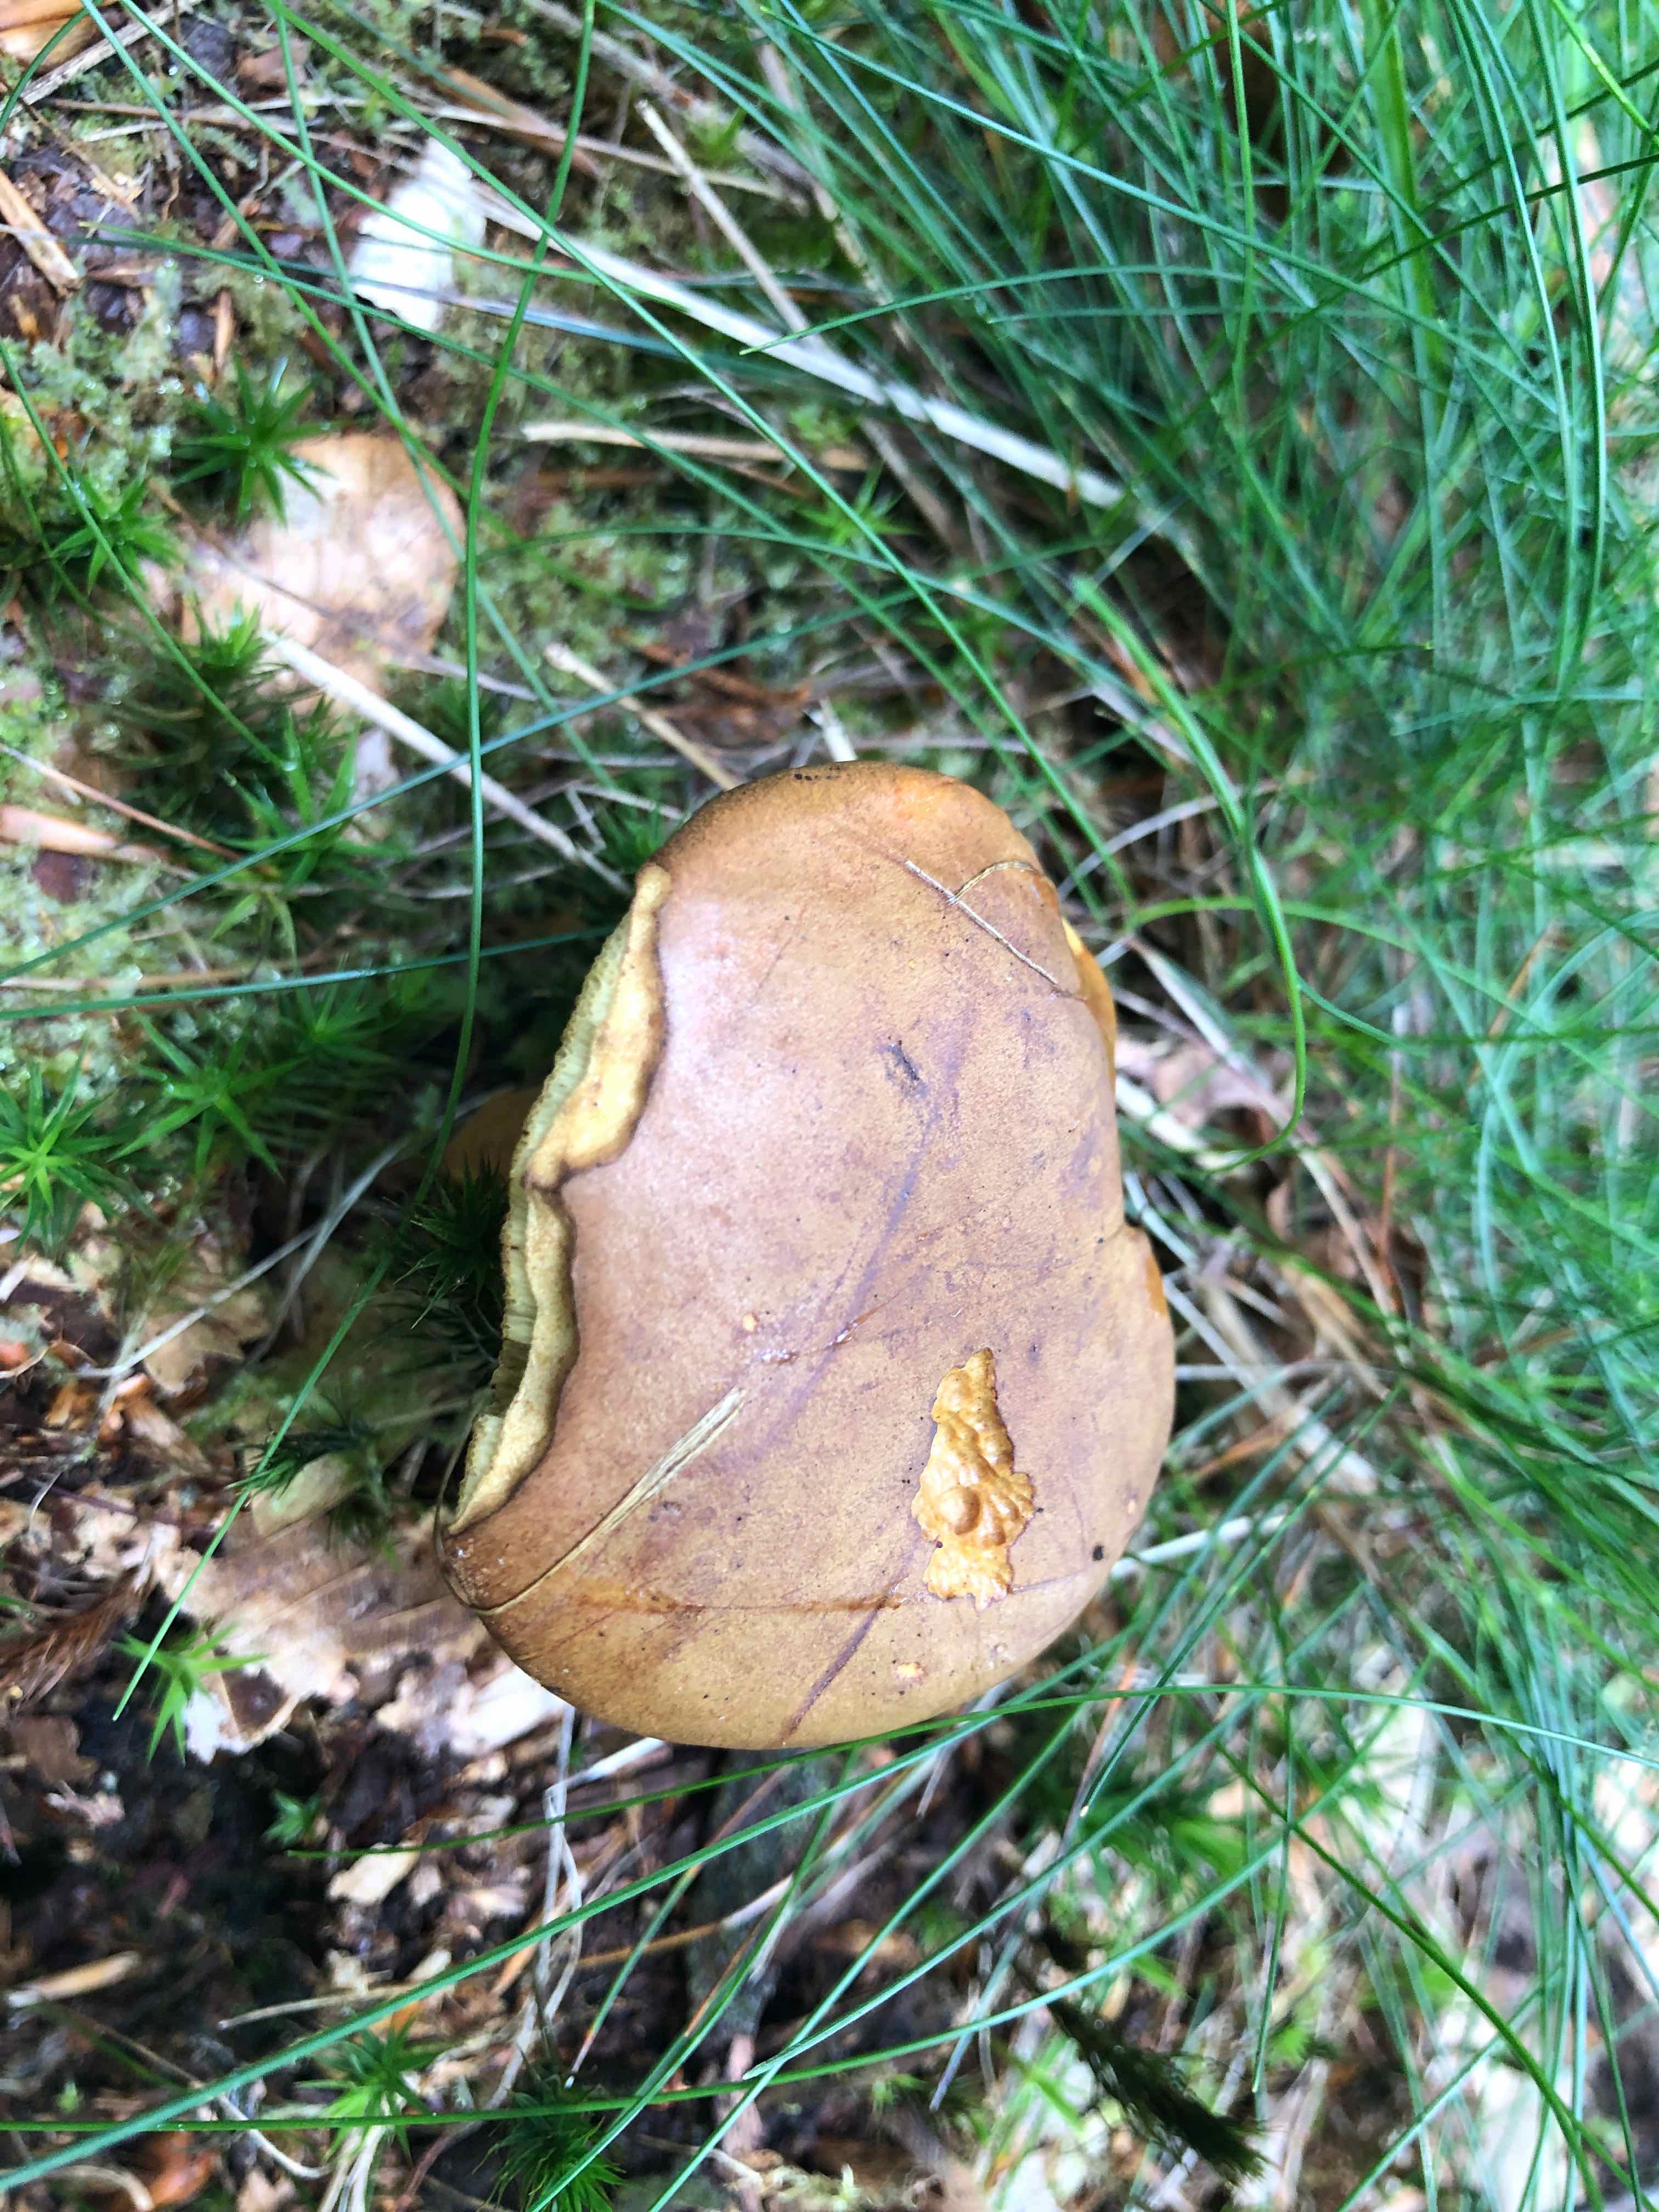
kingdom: Fungi
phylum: Basidiomycota
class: Agaricomycetes
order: Boletales
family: Boletaceae
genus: Imleria
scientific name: Imleria badia
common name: brunstokket rørhat
